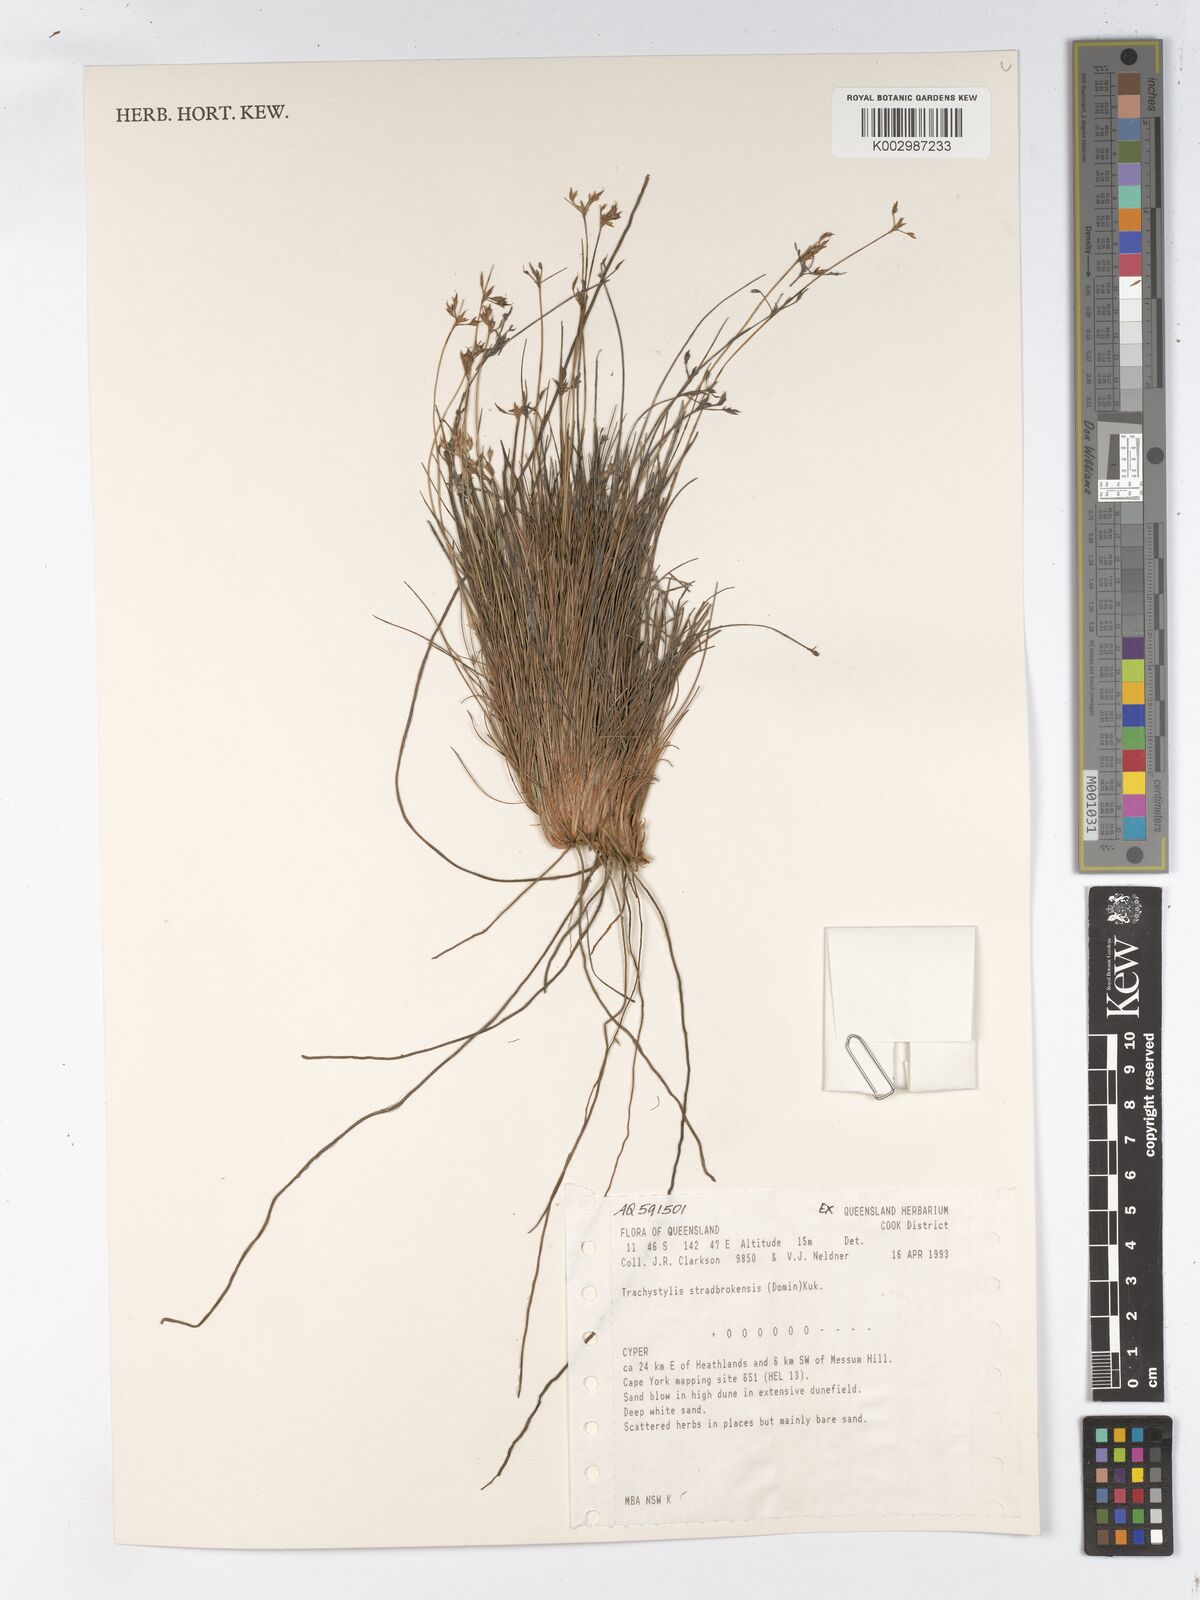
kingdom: Plantae
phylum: Tracheophyta
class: Liliopsida
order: Poales
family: Cyperaceae
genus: Trachystylis
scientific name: Trachystylis stradbrokensis
